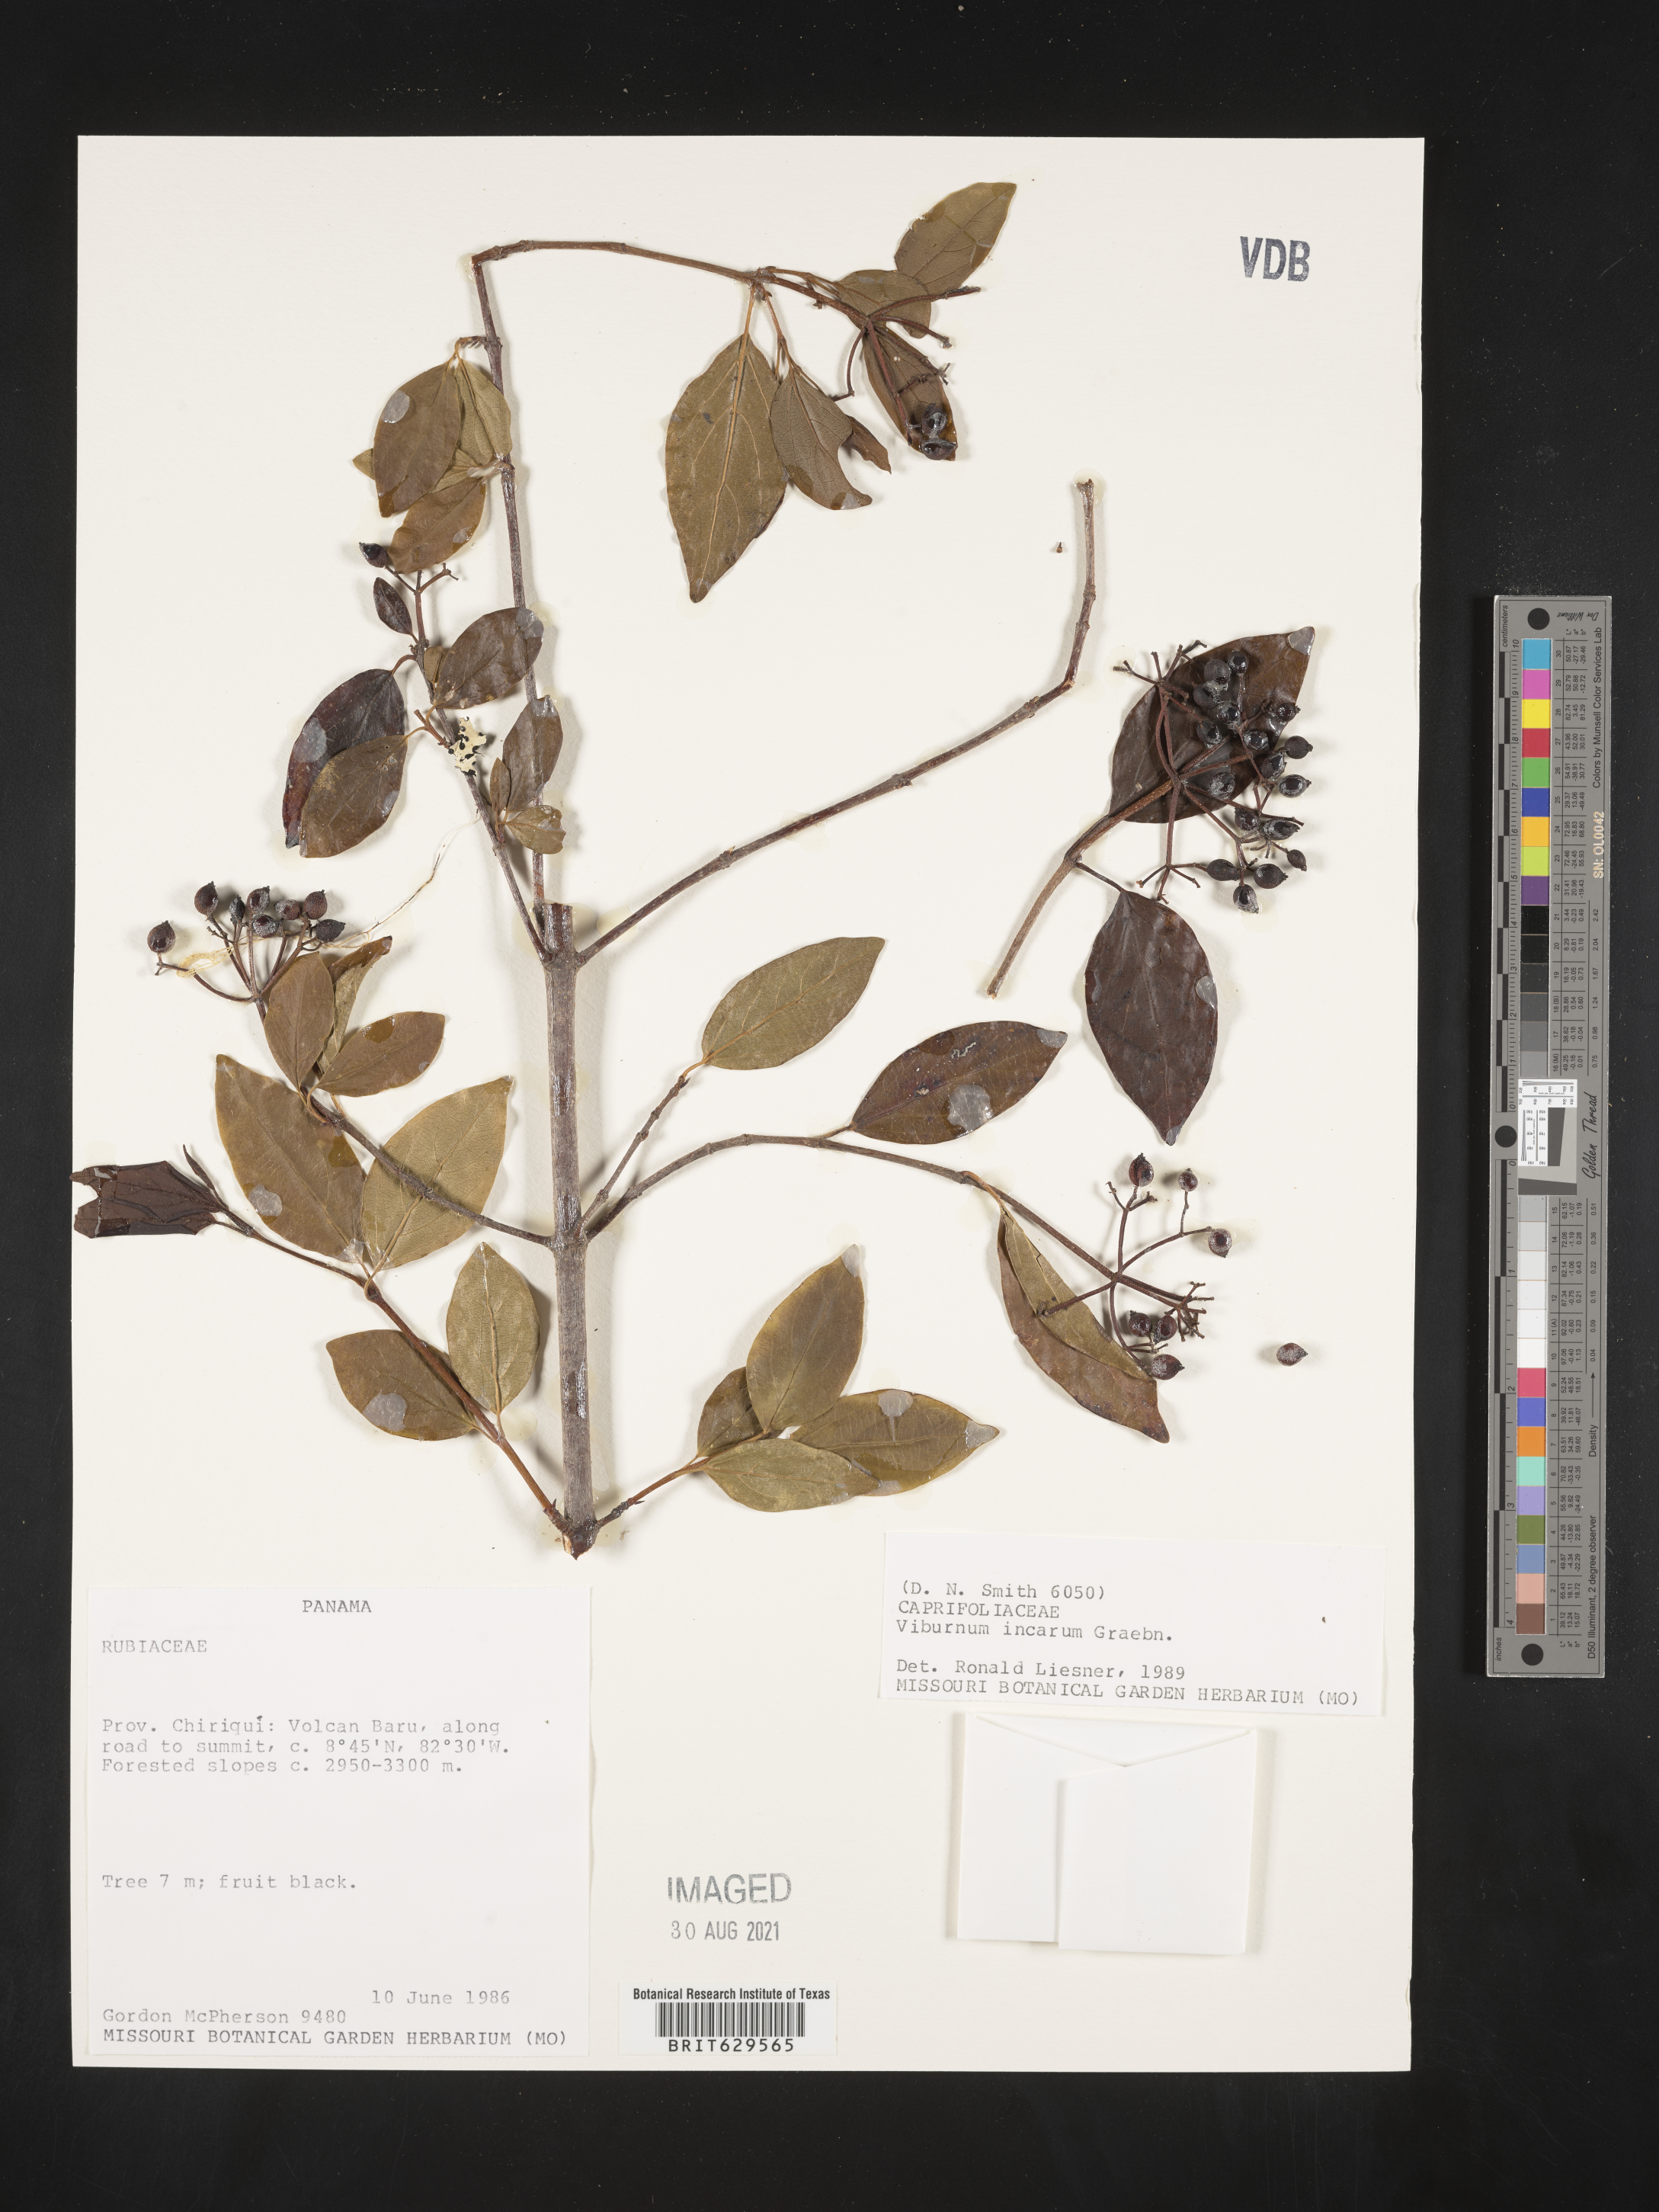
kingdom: Plantae
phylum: Tracheophyta
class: Magnoliopsida
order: Dipsacales
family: Viburnaceae
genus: Viburnum
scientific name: Viburnum hallii
